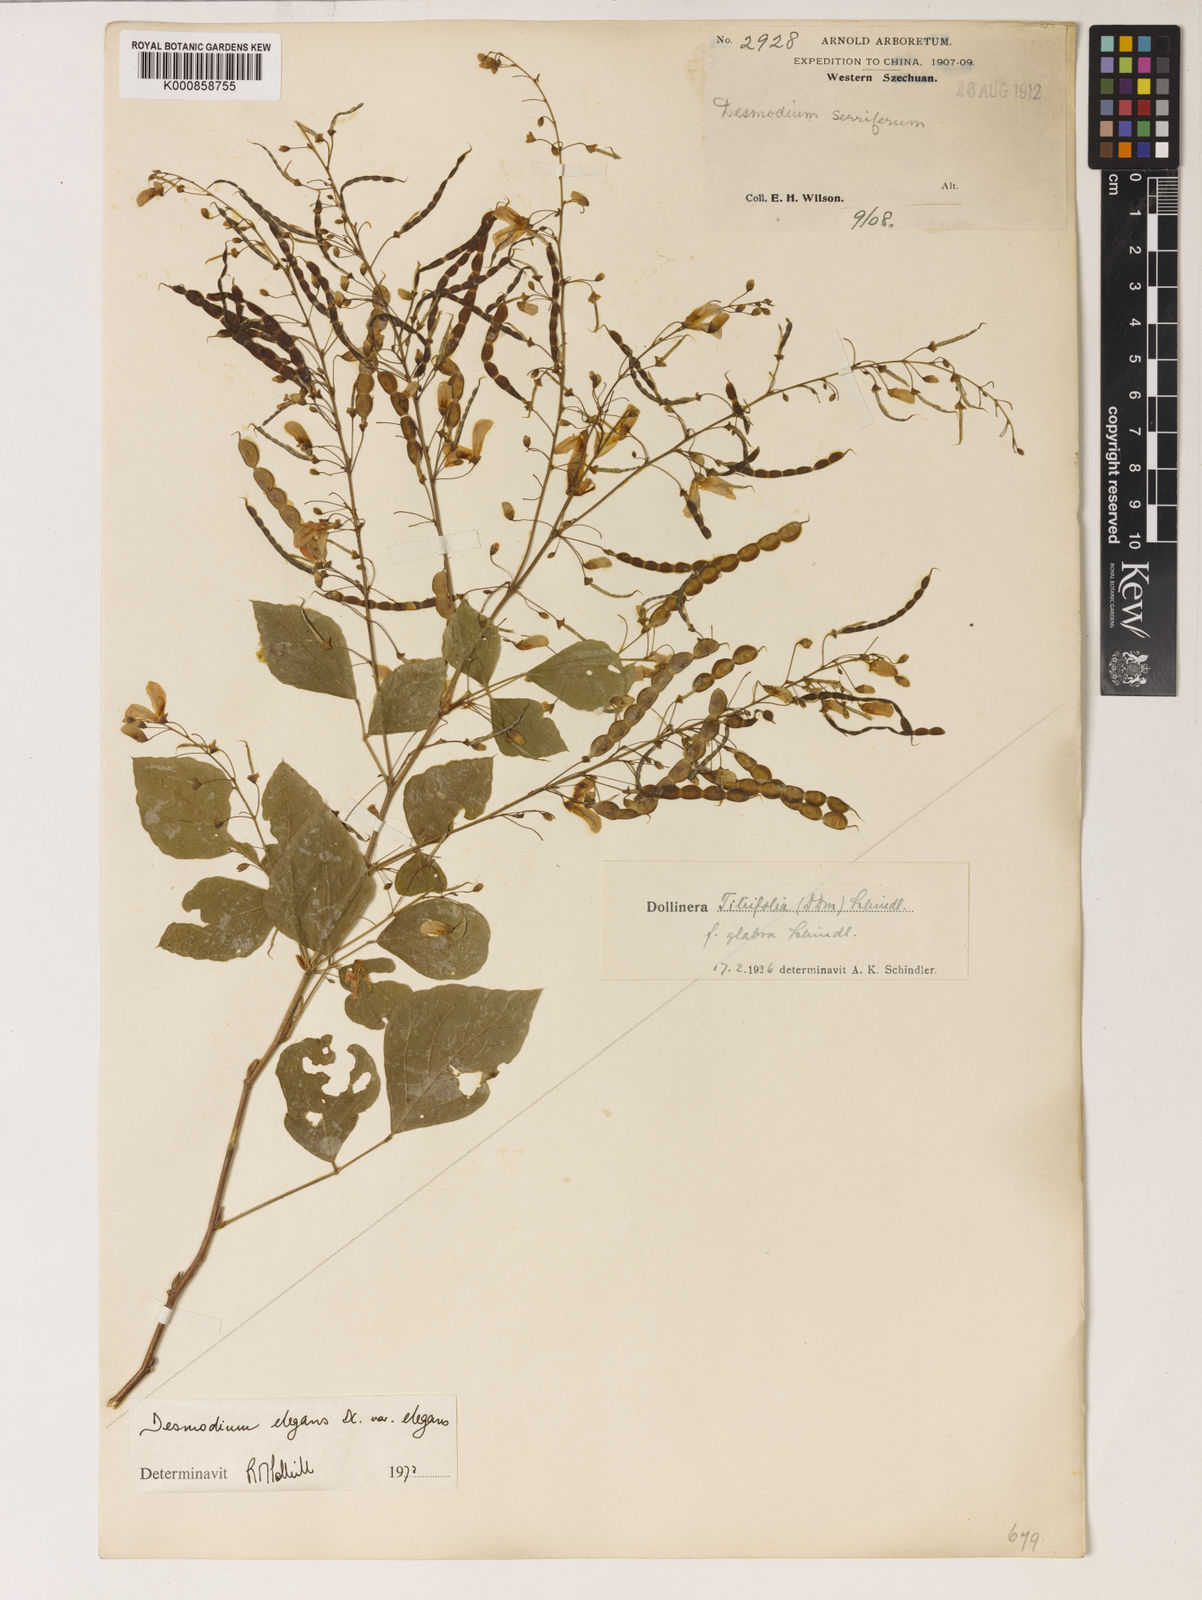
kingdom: Plantae
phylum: Tracheophyta
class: Magnoliopsida
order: Fabales
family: Fabaceae
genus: Sunhangia
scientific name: Sunhangia elegans
